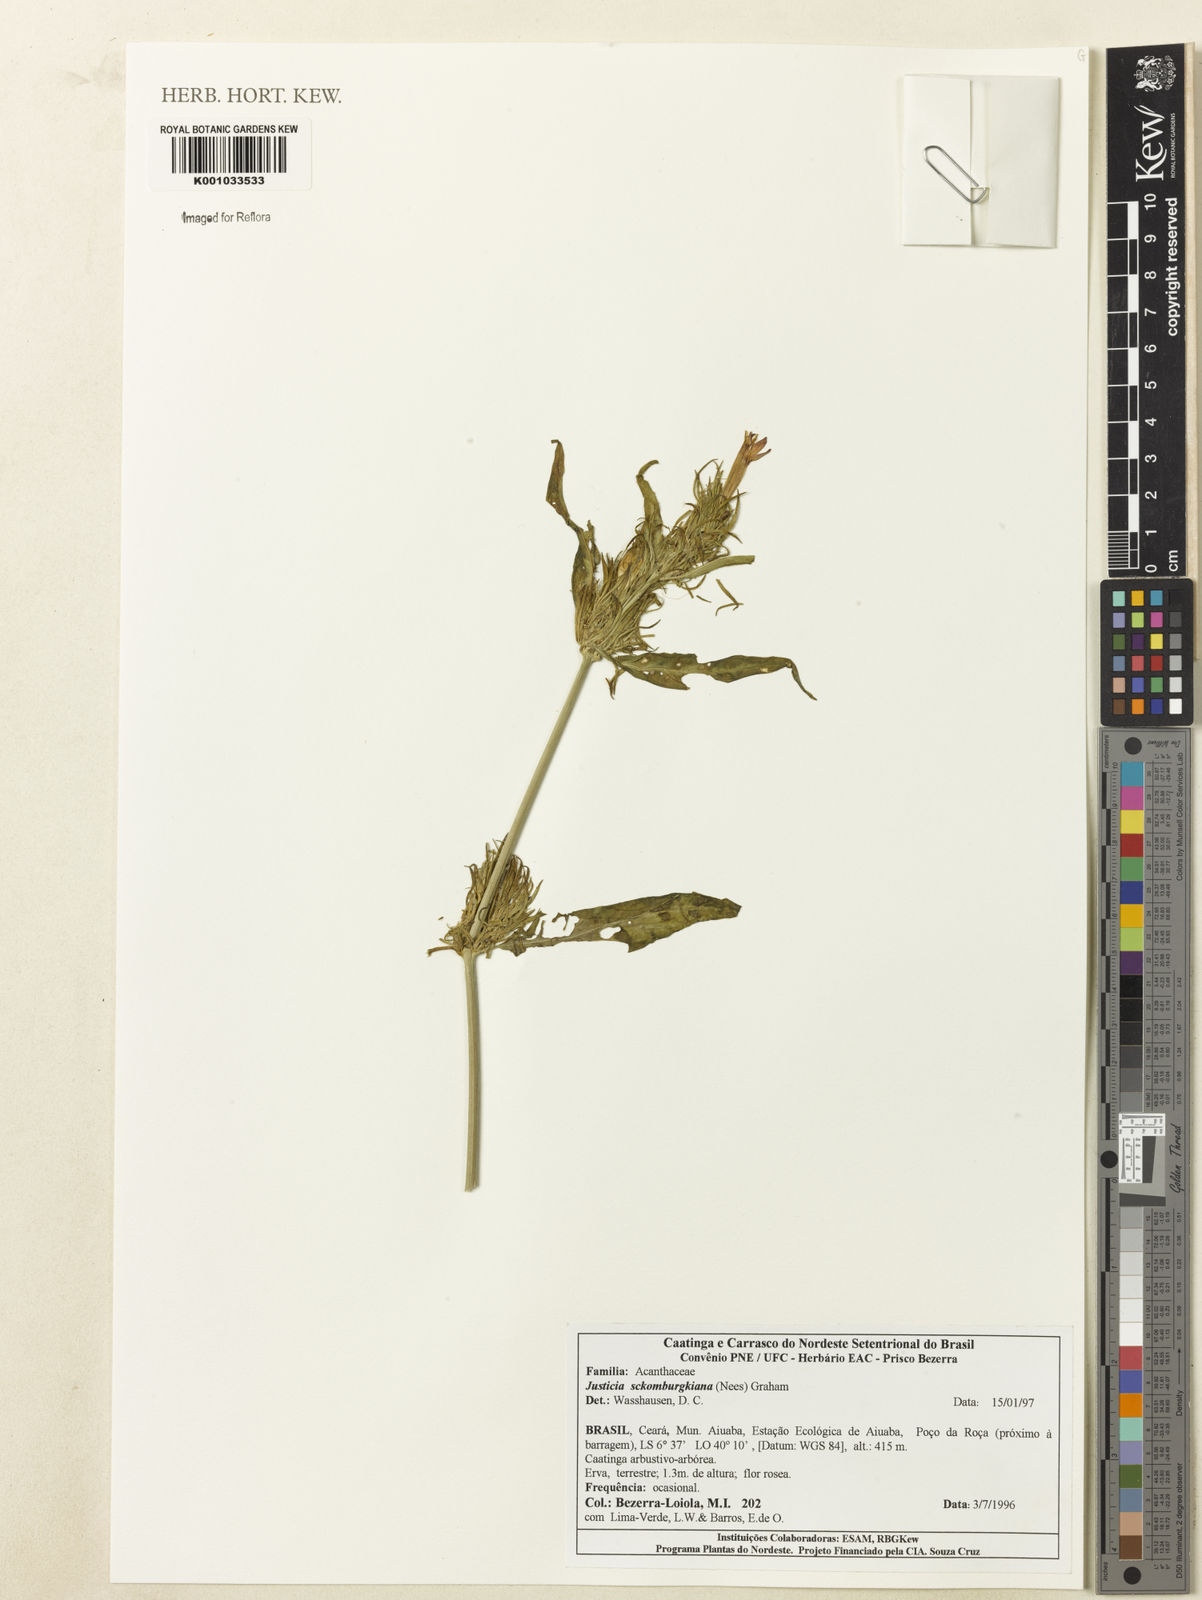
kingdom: Plantae
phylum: Tracheophyta
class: Magnoliopsida
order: Lamiales
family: Acanthaceae
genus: Justicia
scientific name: Justicia sphaerosperma
